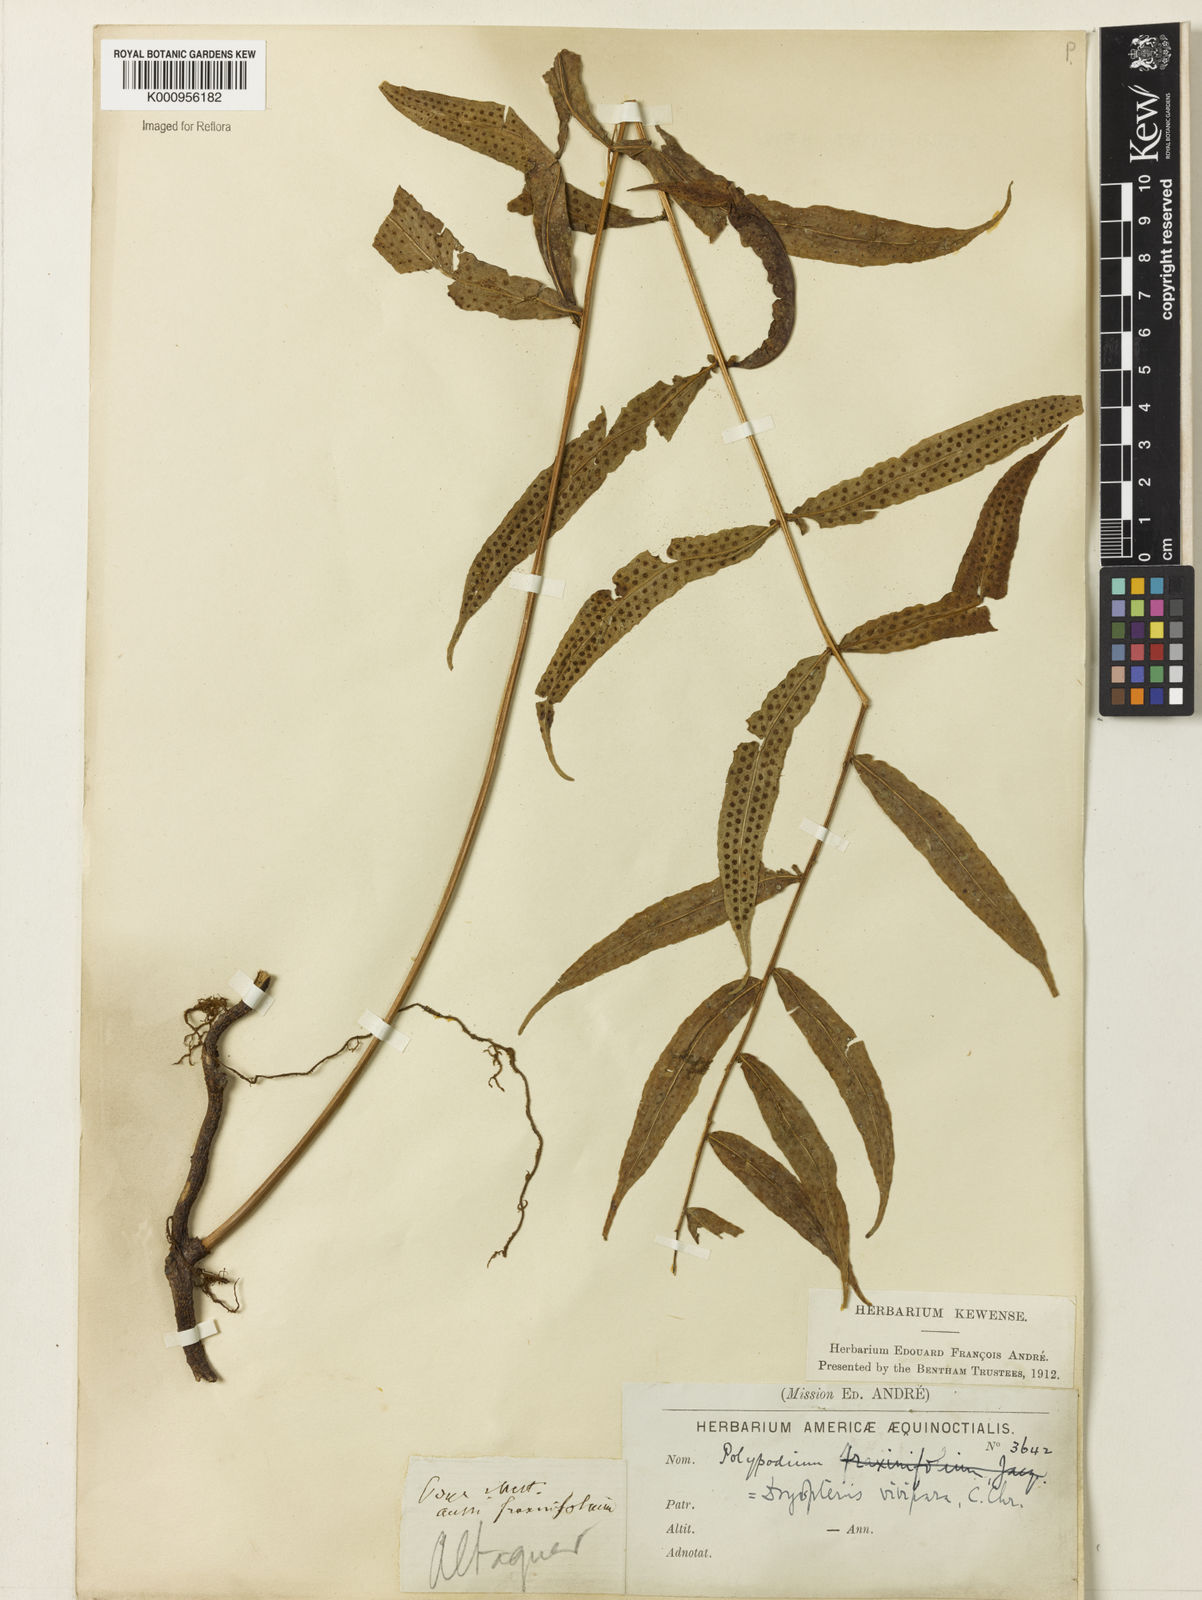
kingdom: Plantae
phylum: Tracheophyta
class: Polypodiopsida
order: Polypodiales
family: Polypodiaceae
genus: Serpocaulon
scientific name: Serpocaulon fraxinifolium
